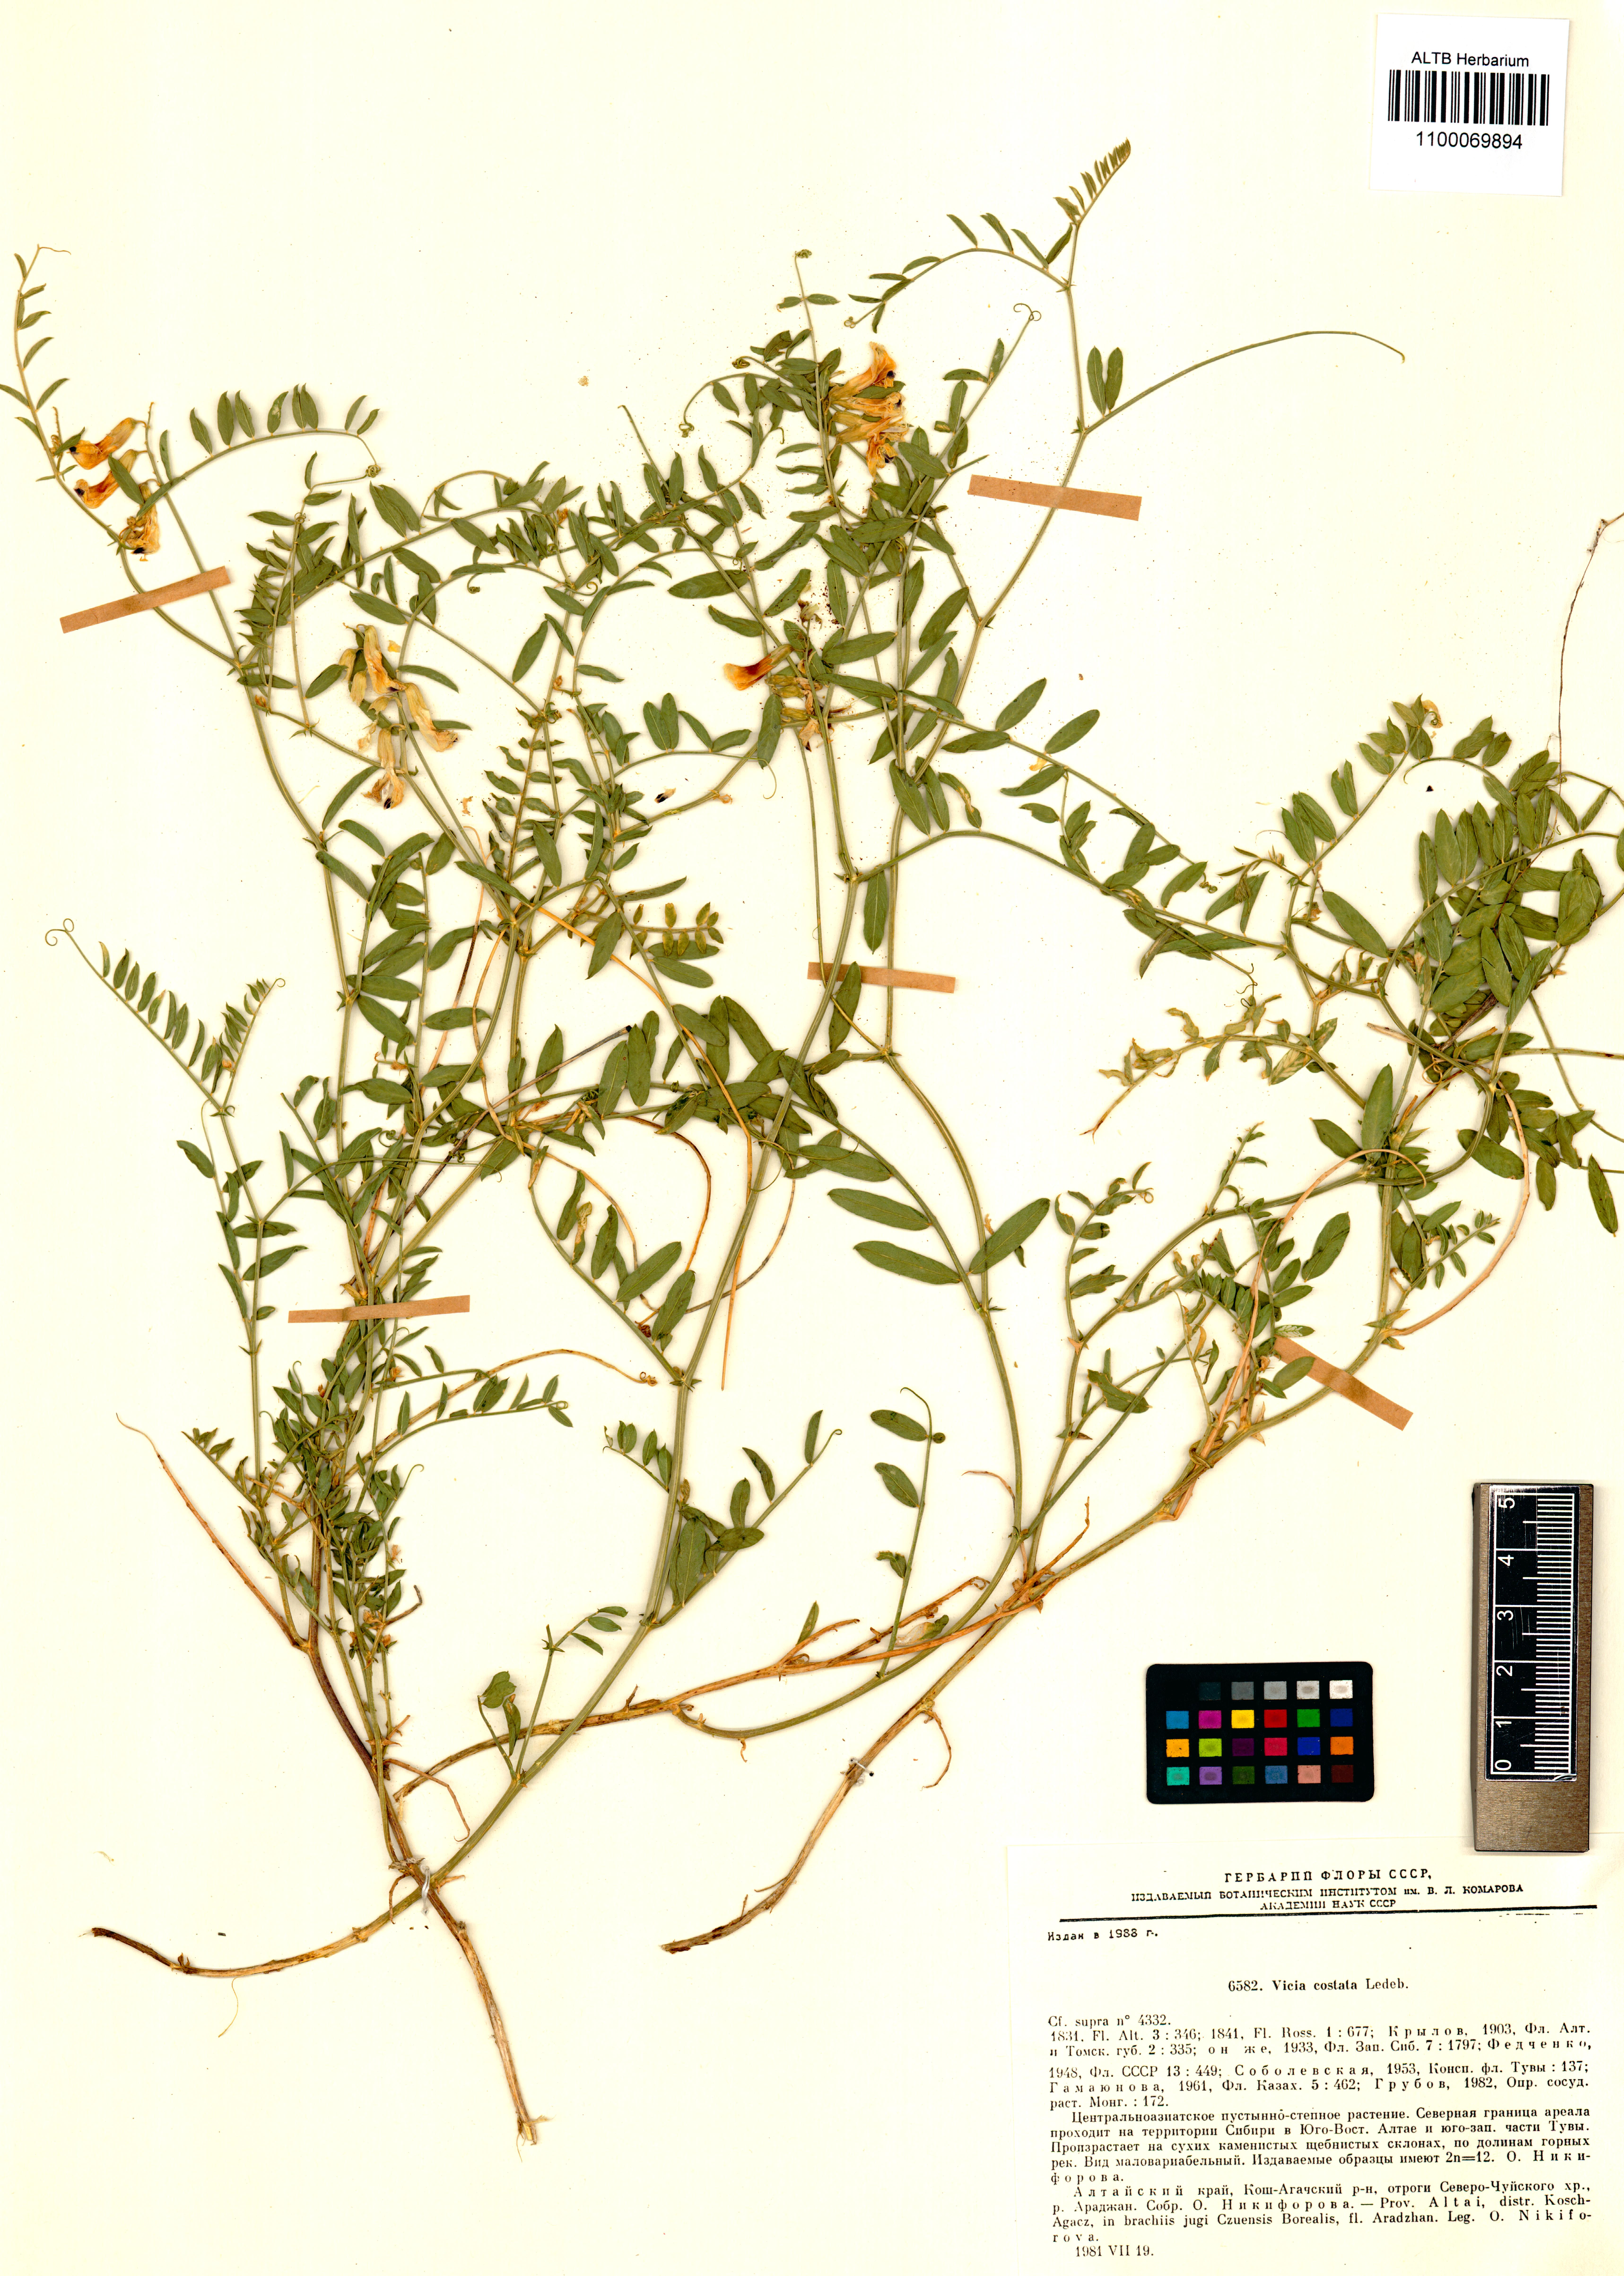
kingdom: Plantae
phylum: Tracheophyta
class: Magnoliopsida
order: Fabales
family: Fabaceae
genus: Vicia
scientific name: Vicia costata
